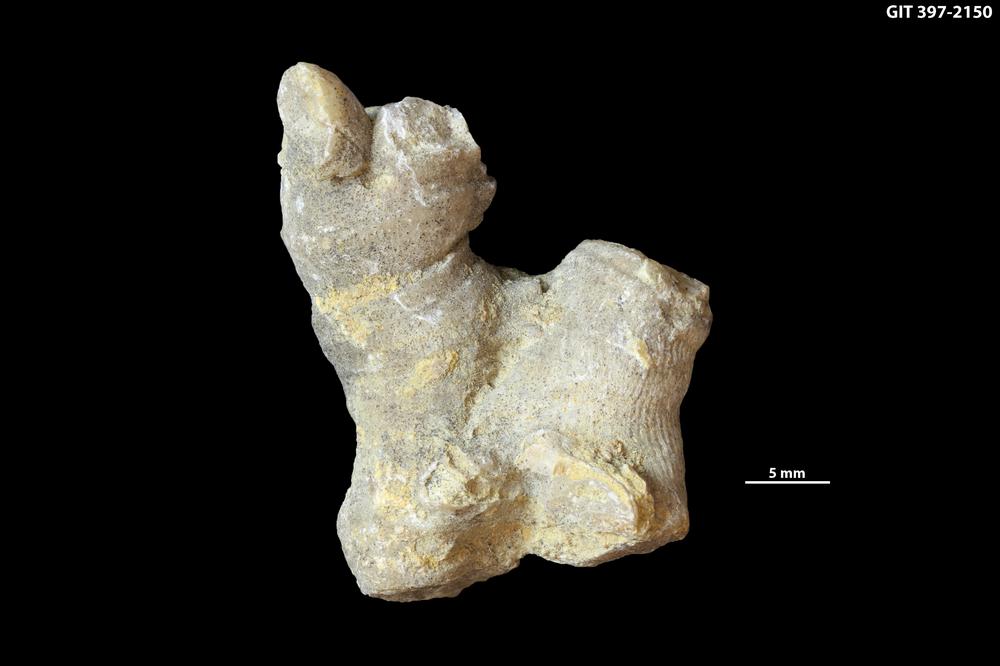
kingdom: Animalia
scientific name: Animalia
